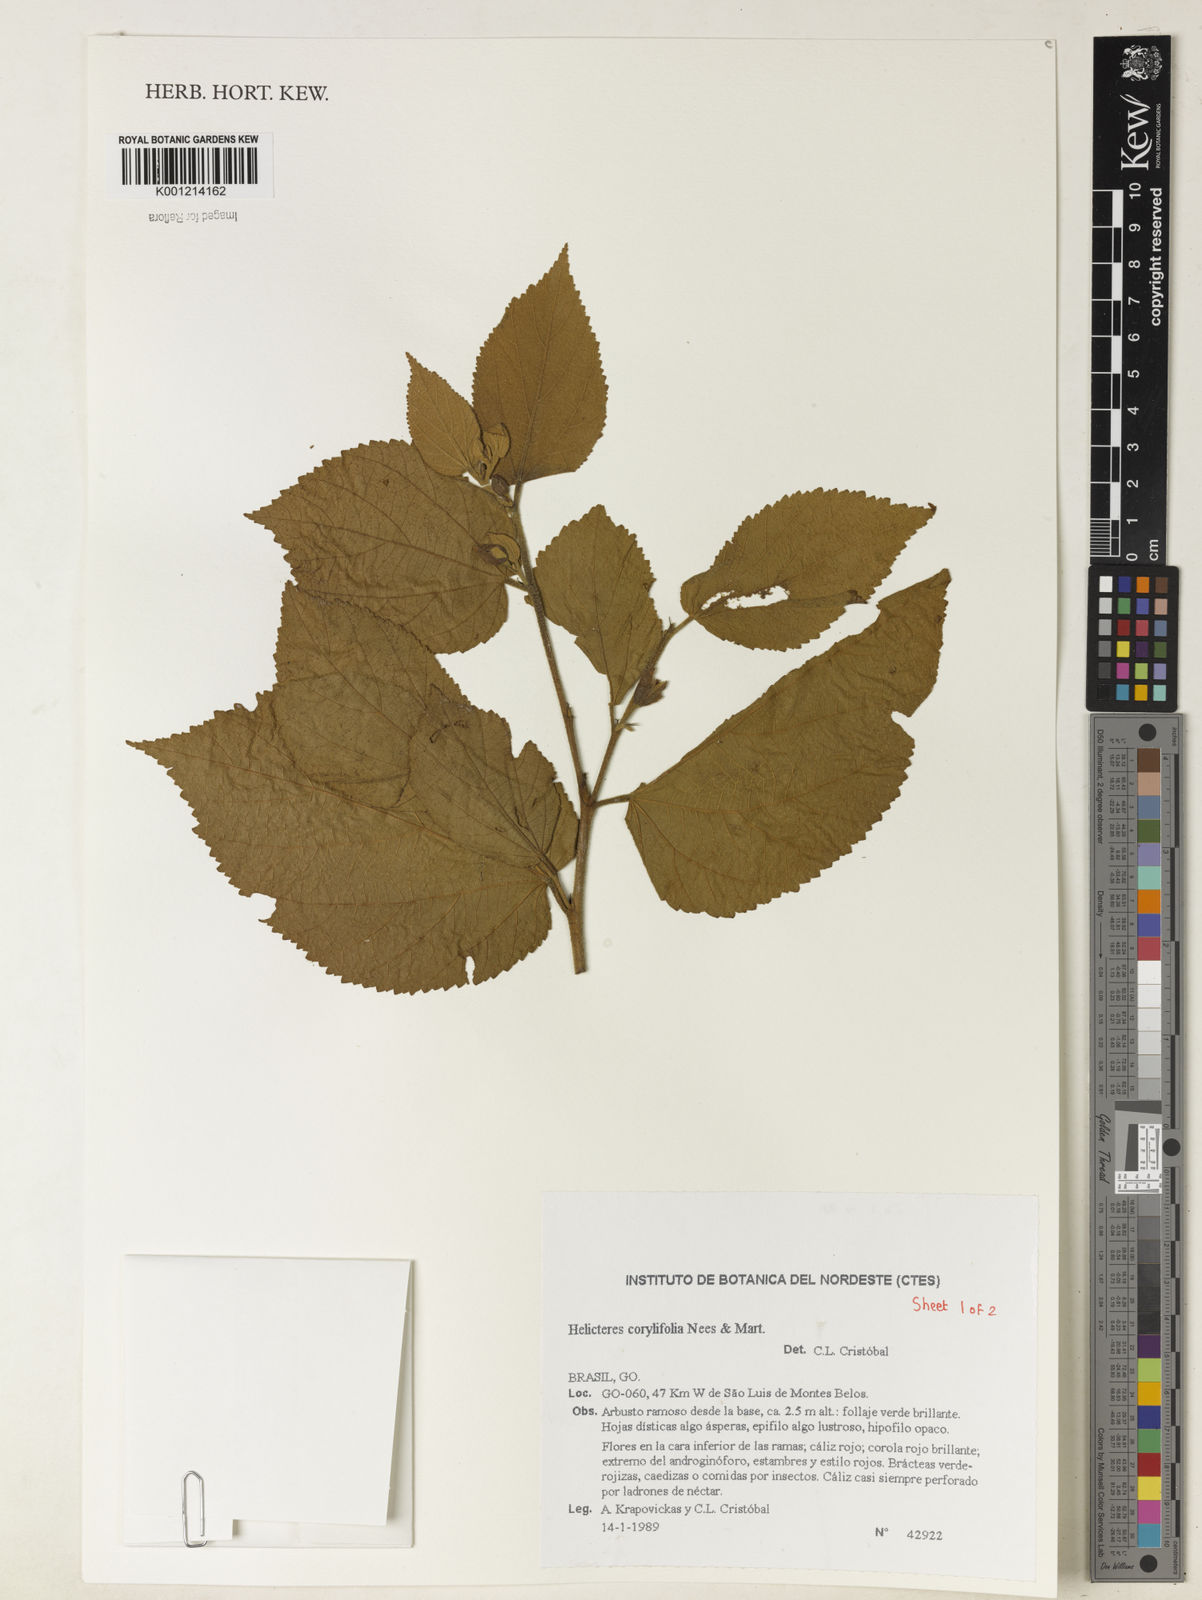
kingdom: Plantae
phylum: Tracheophyta
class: Magnoliopsida
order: Malvales
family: Malvaceae
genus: Helicteres
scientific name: Helicteres corylifolia
